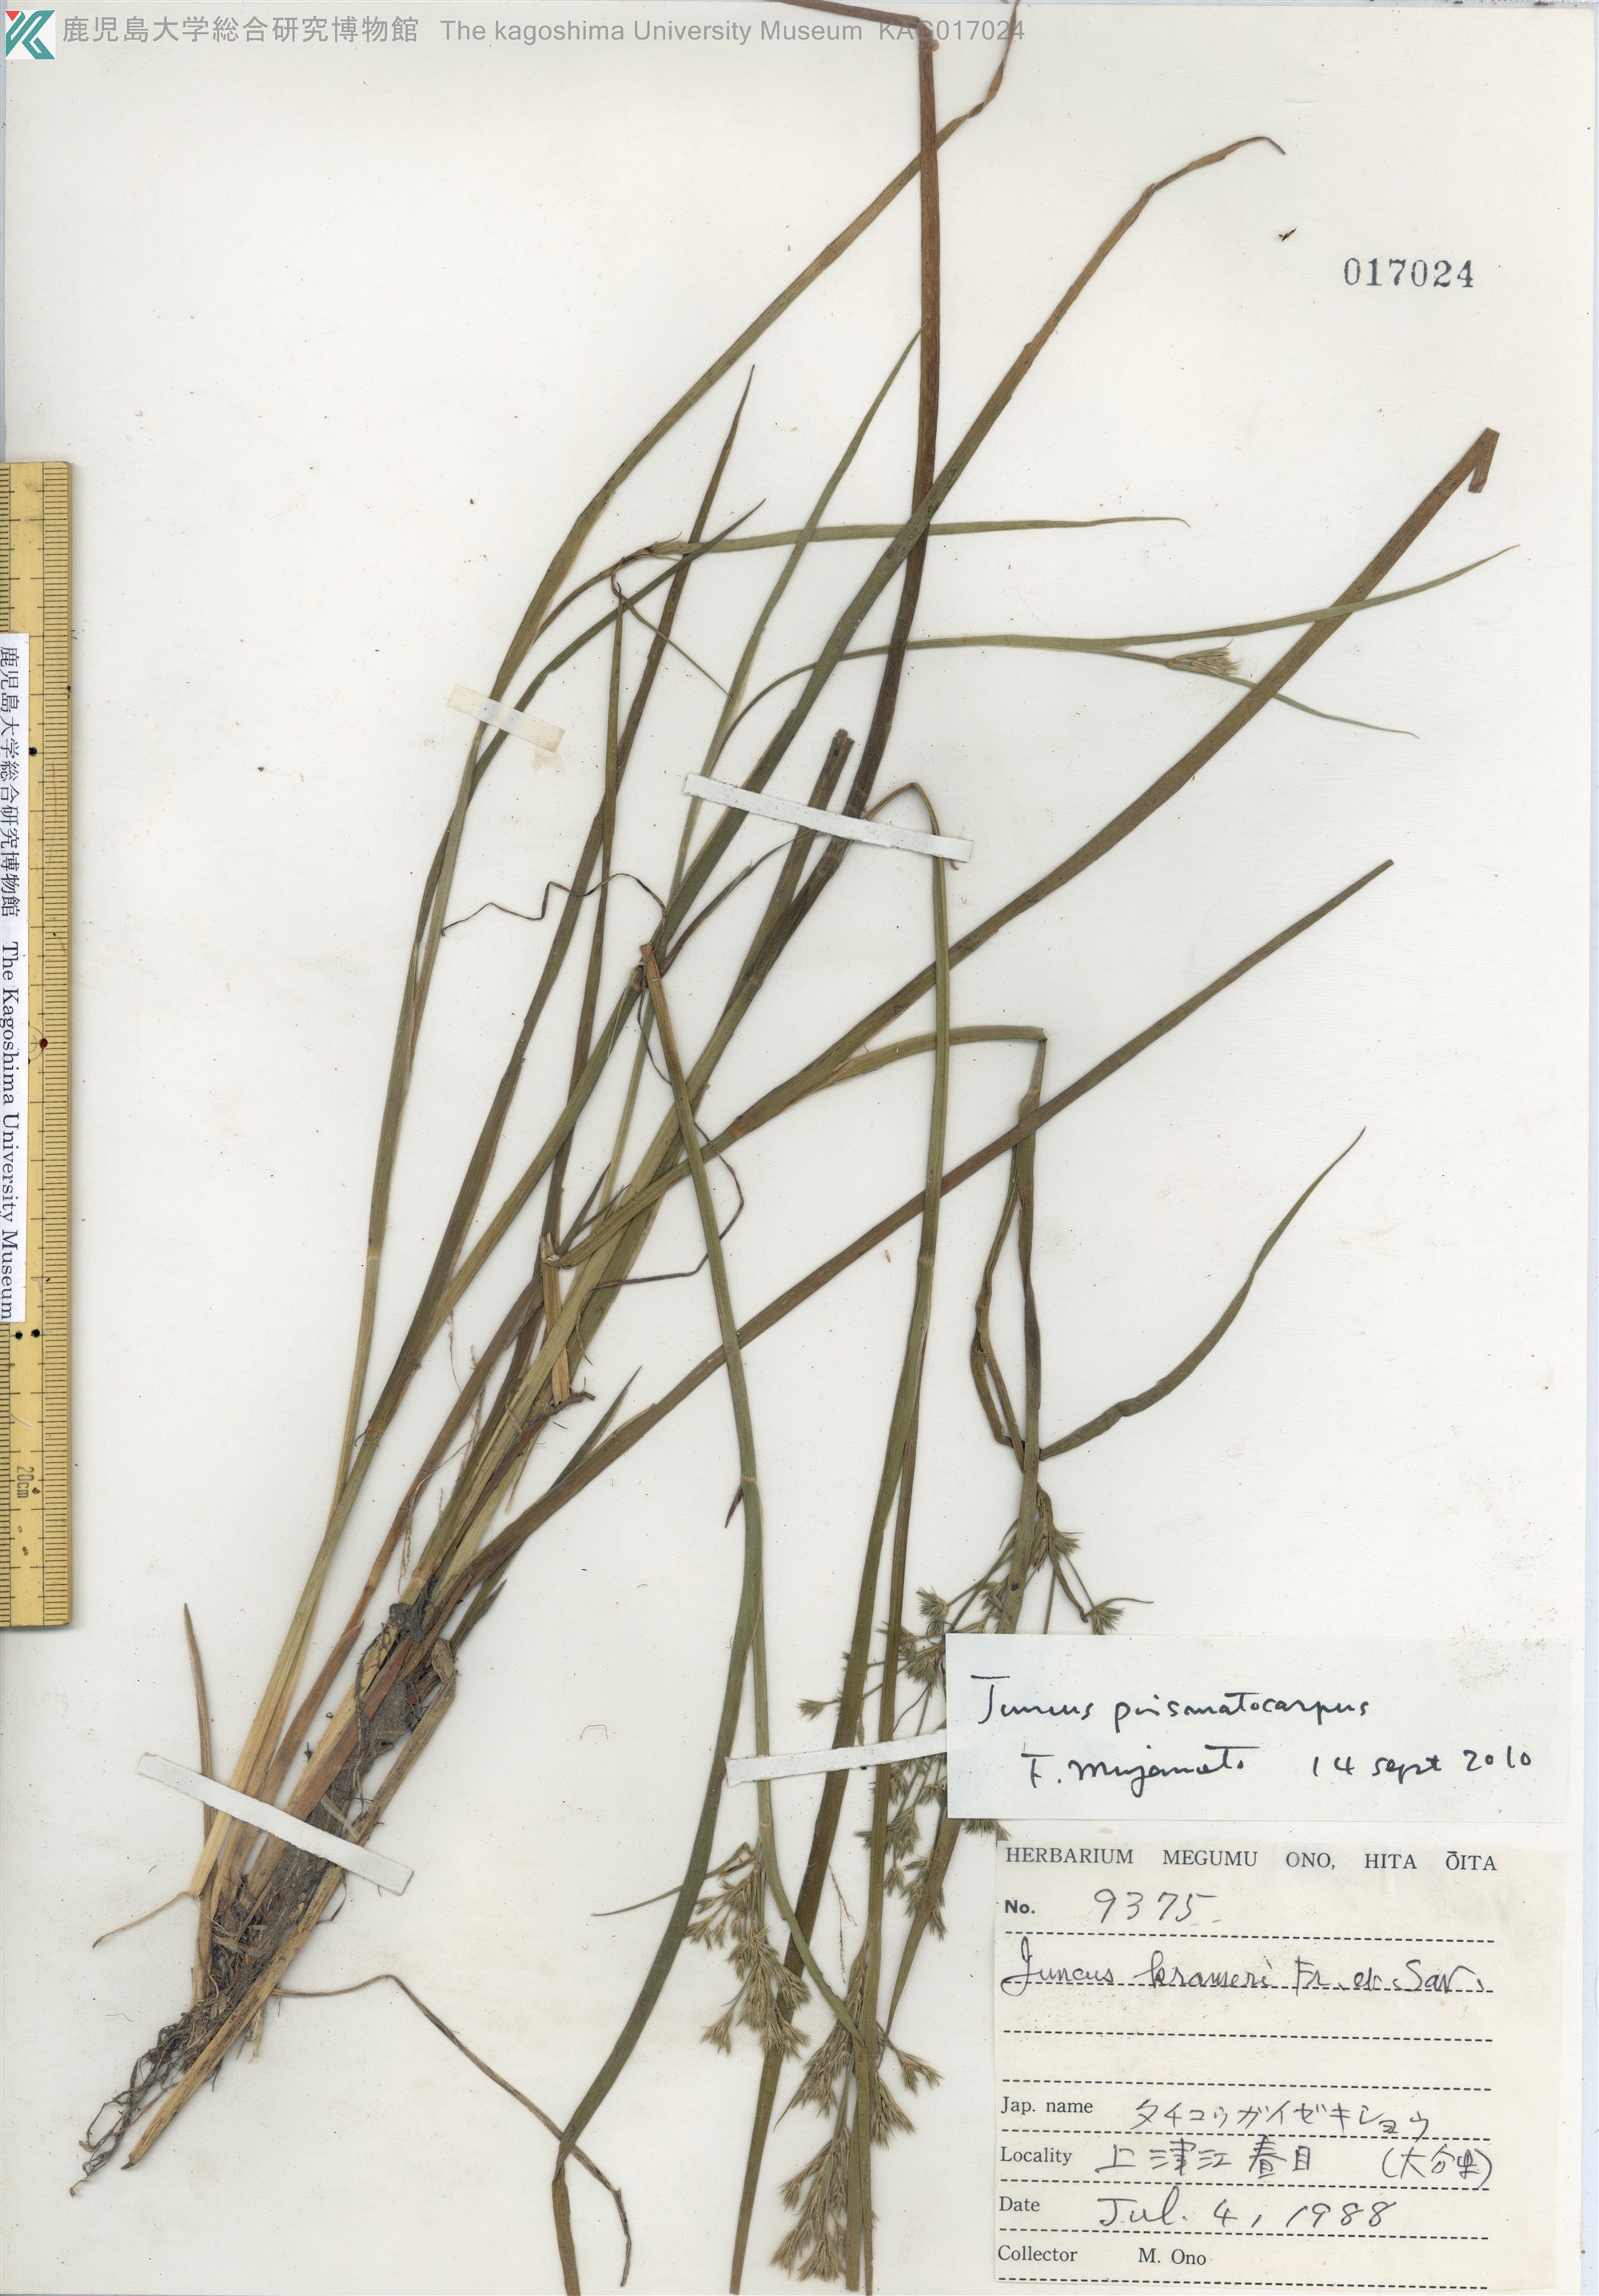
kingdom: Plantae
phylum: Tracheophyta
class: Liliopsida
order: Poales
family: Juncaceae
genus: Juncus
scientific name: Juncus prismatocarpus
